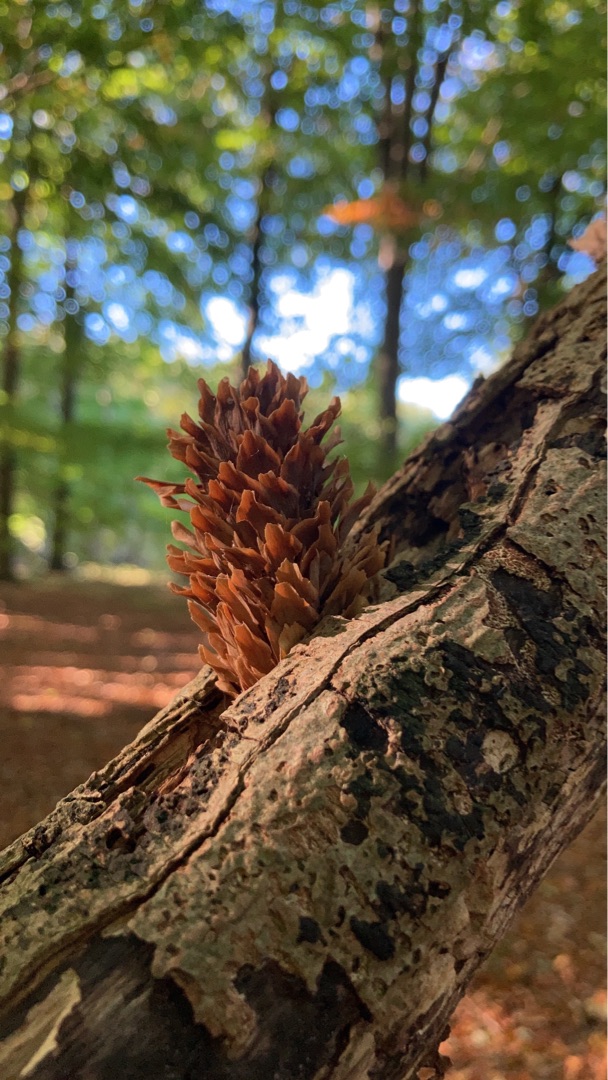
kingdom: Plantae
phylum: Tracheophyta
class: Pinopsida
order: Pinales
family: Pinaceae
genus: Picea
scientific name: Picea sitchensis
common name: Sitka-gran
